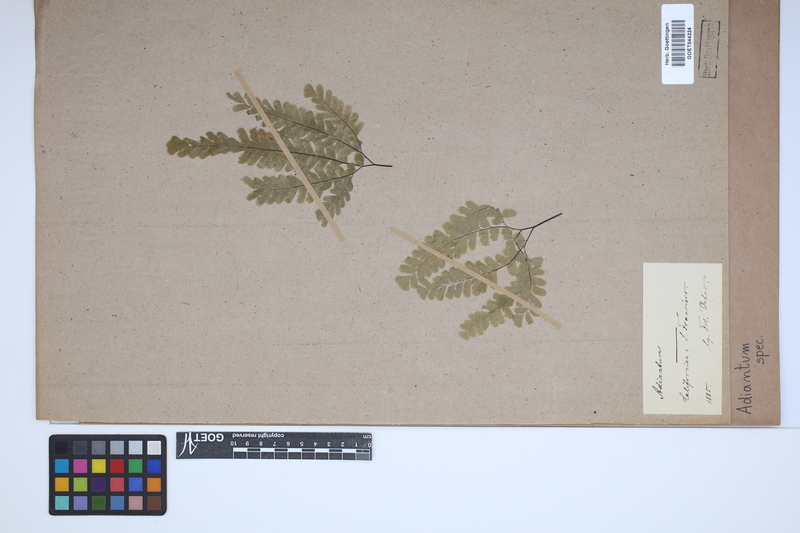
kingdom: Plantae
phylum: Tracheophyta
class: Polypodiopsida
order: Polypodiales
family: Pteridaceae
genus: Adiantum
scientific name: Adiantum
